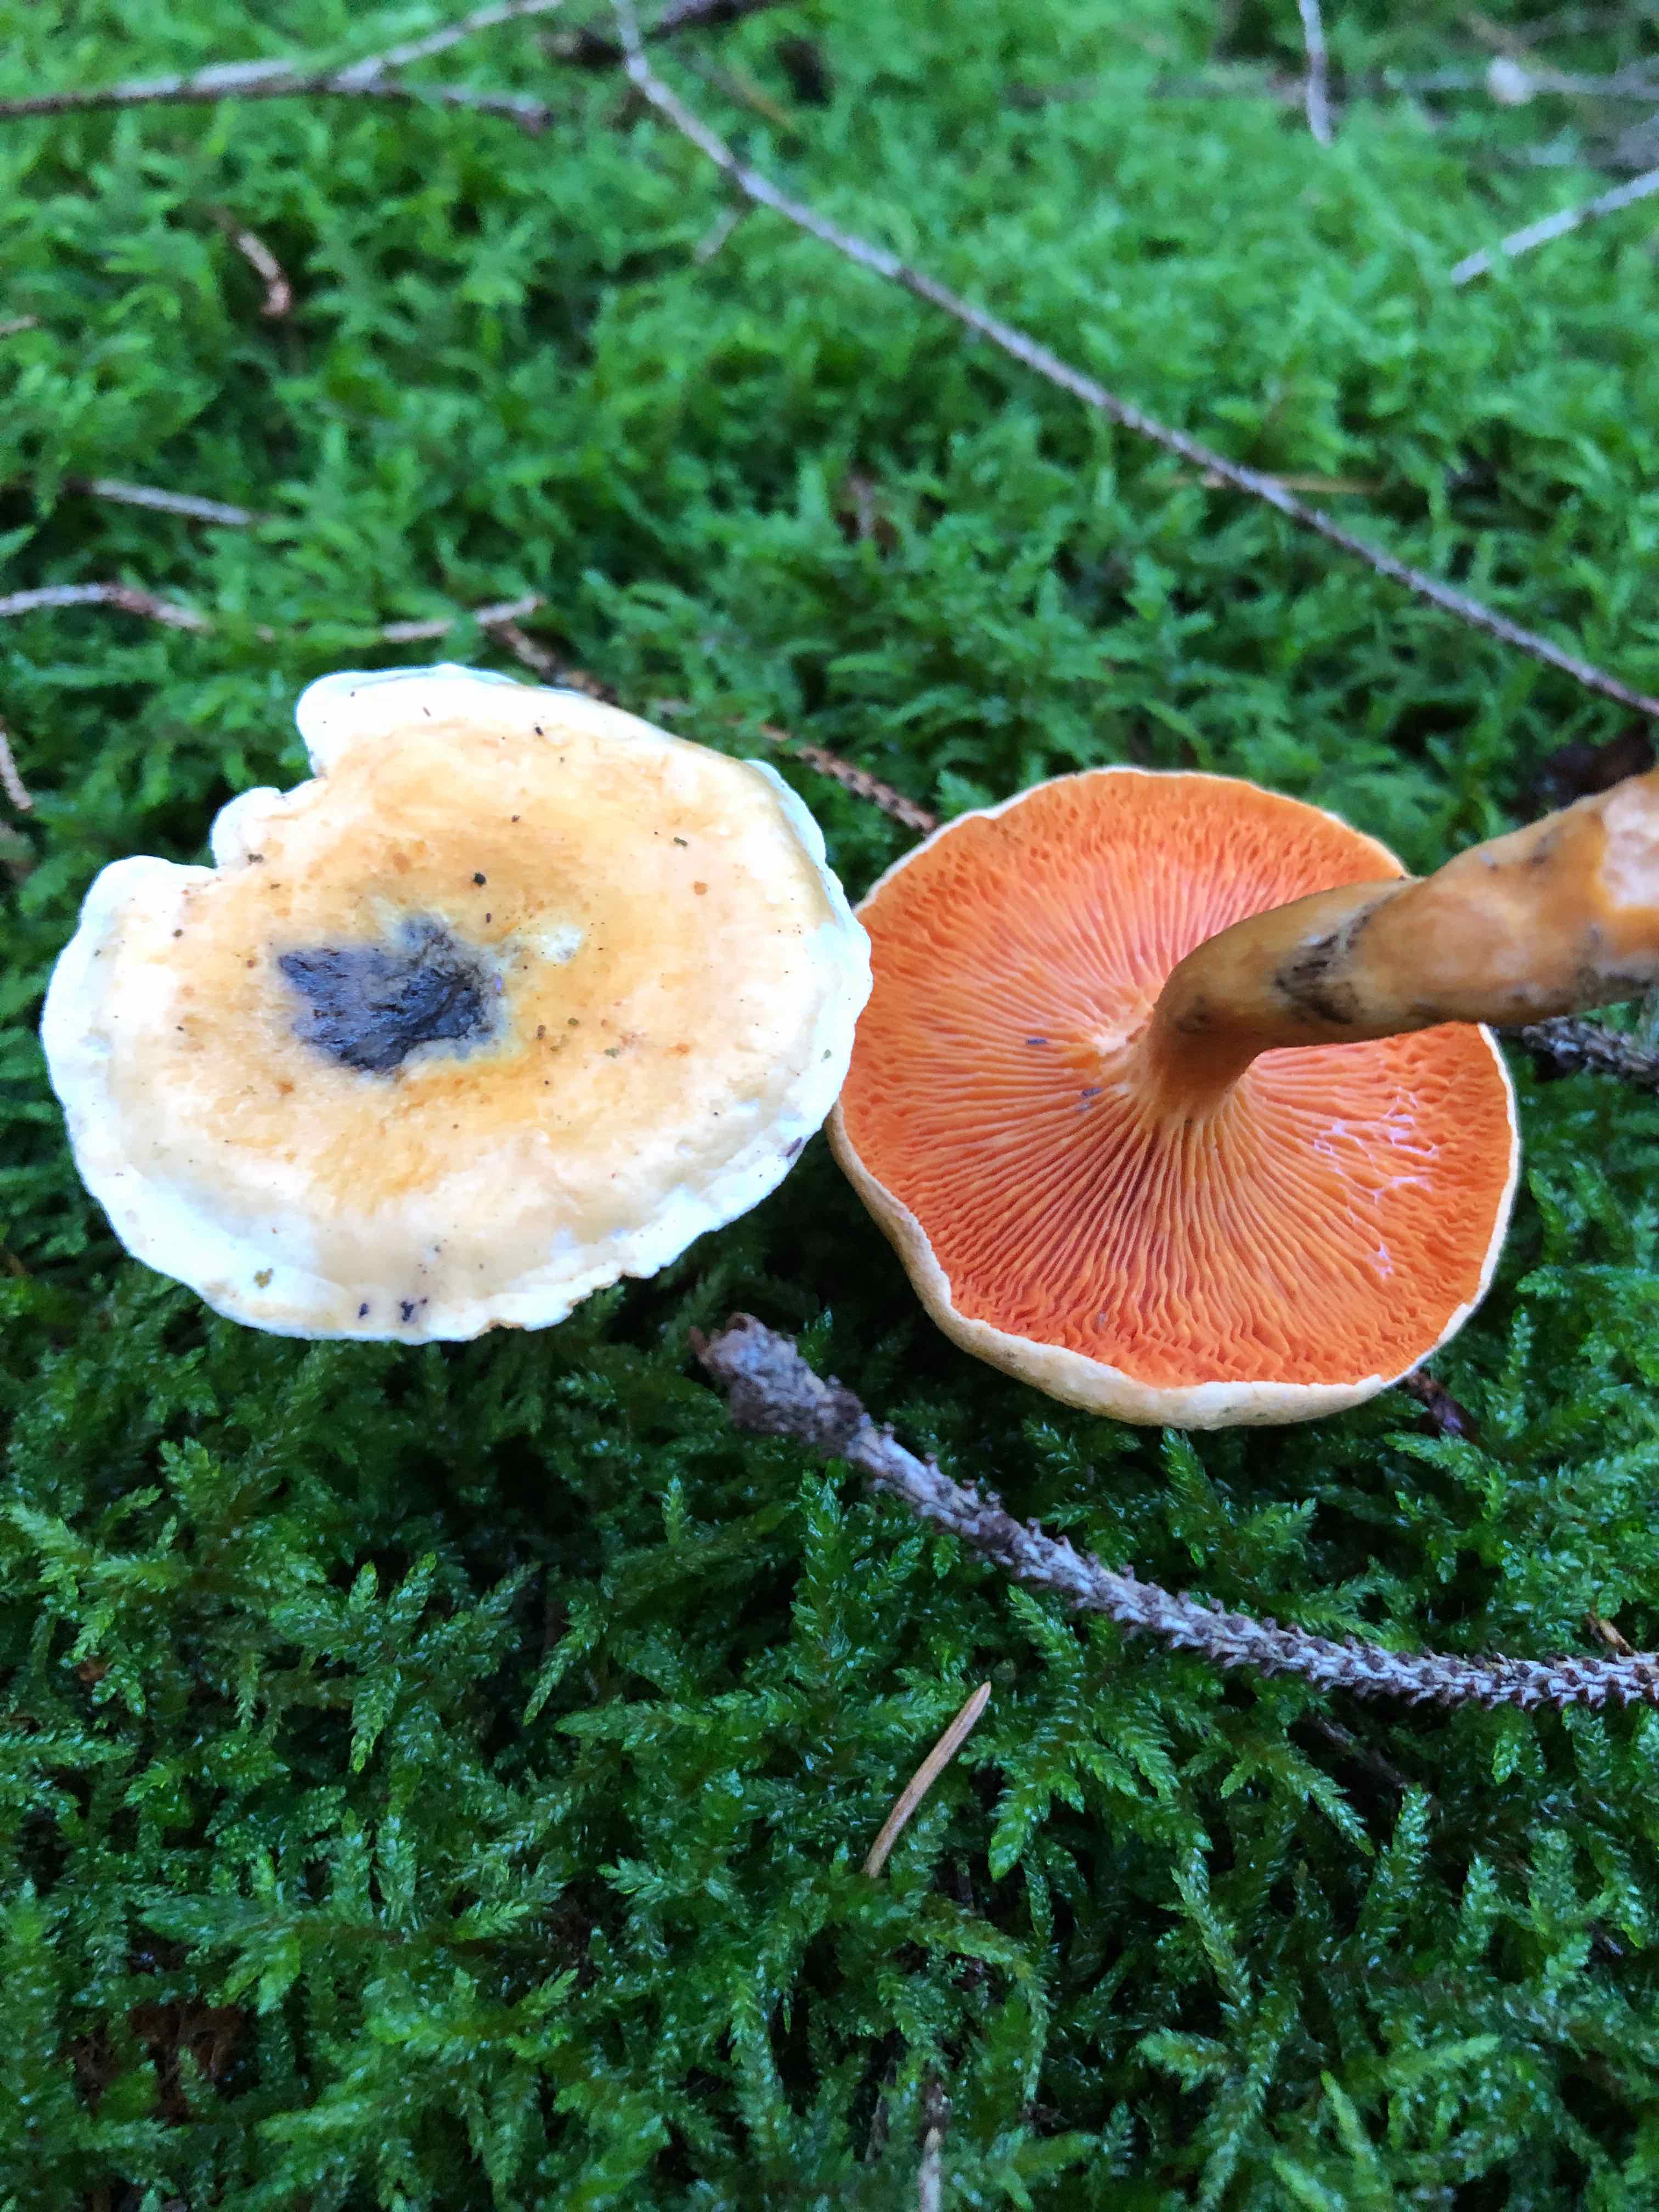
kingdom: Fungi
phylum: Basidiomycota
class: Agaricomycetes
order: Boletales
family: Hygrophoropsidaceae
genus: Hygrophoropsis
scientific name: Hygrophoropsis aurantiaca
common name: almindelig orangekantarel
